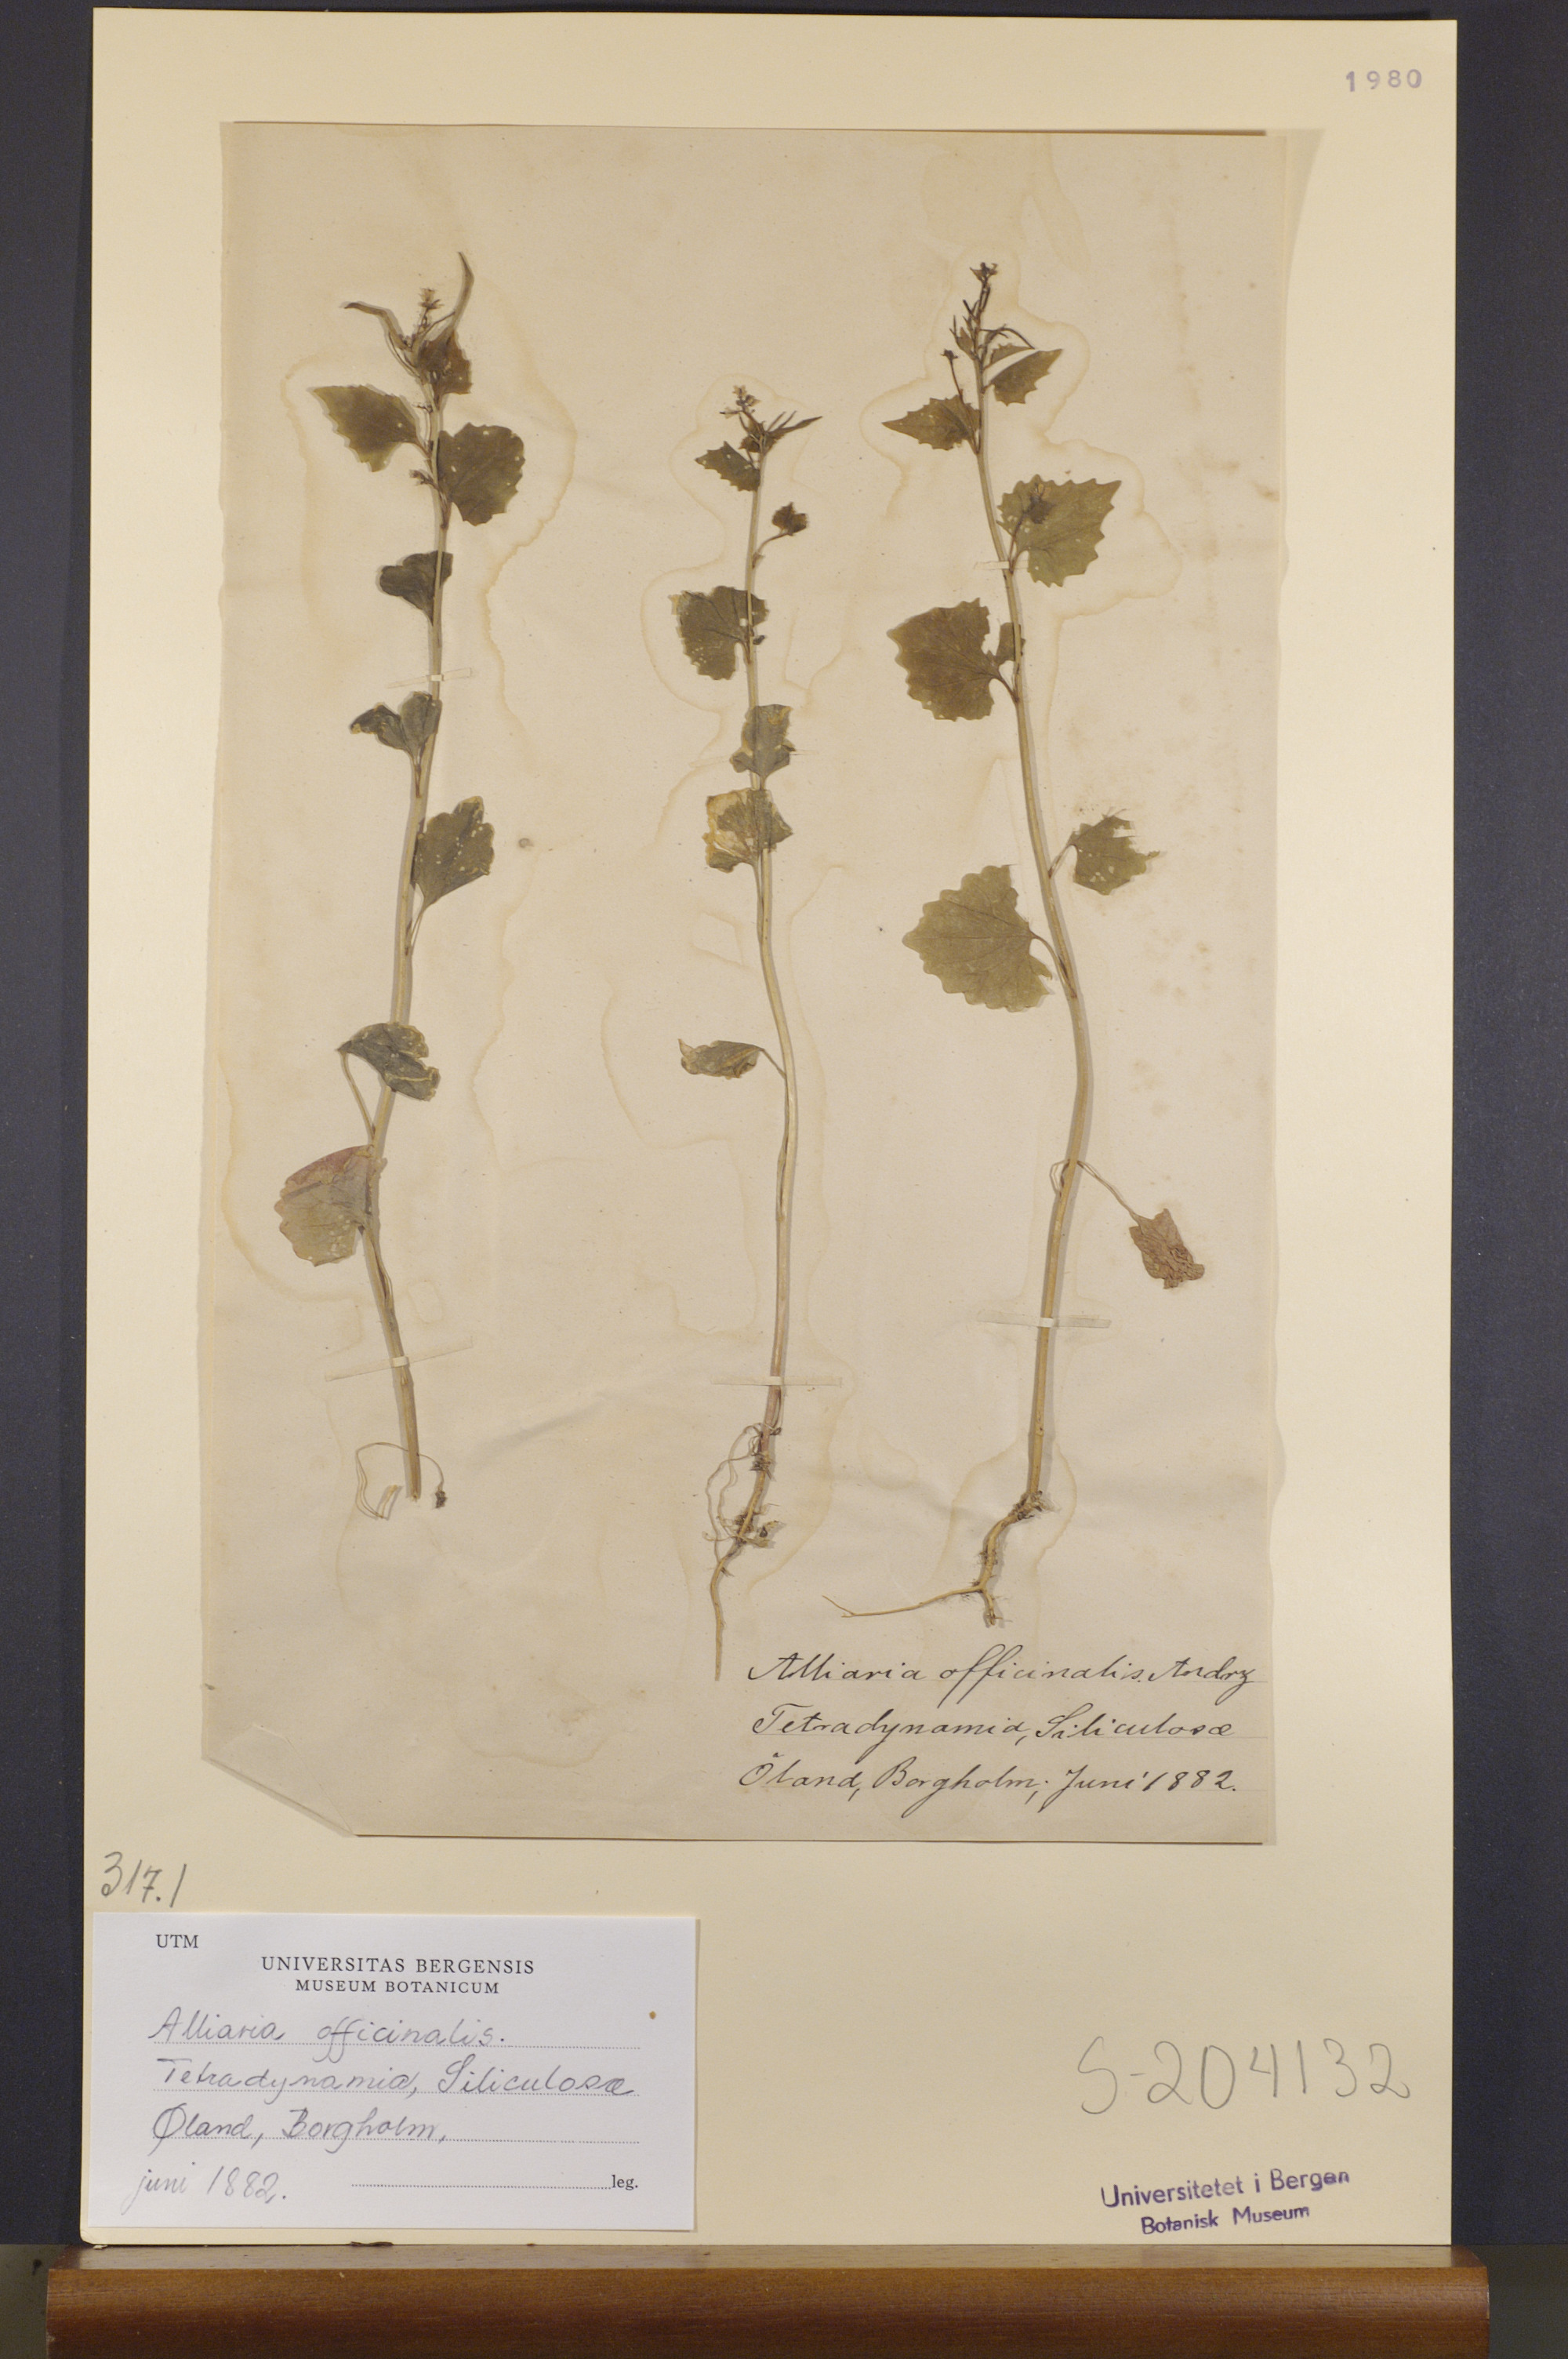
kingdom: Plantae
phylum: Tracheophyta
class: Magnoliopsida
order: Brassicales
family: Brassicaceae
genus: Alliaria
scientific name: Alliaria petiolata
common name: Garlic mustard
